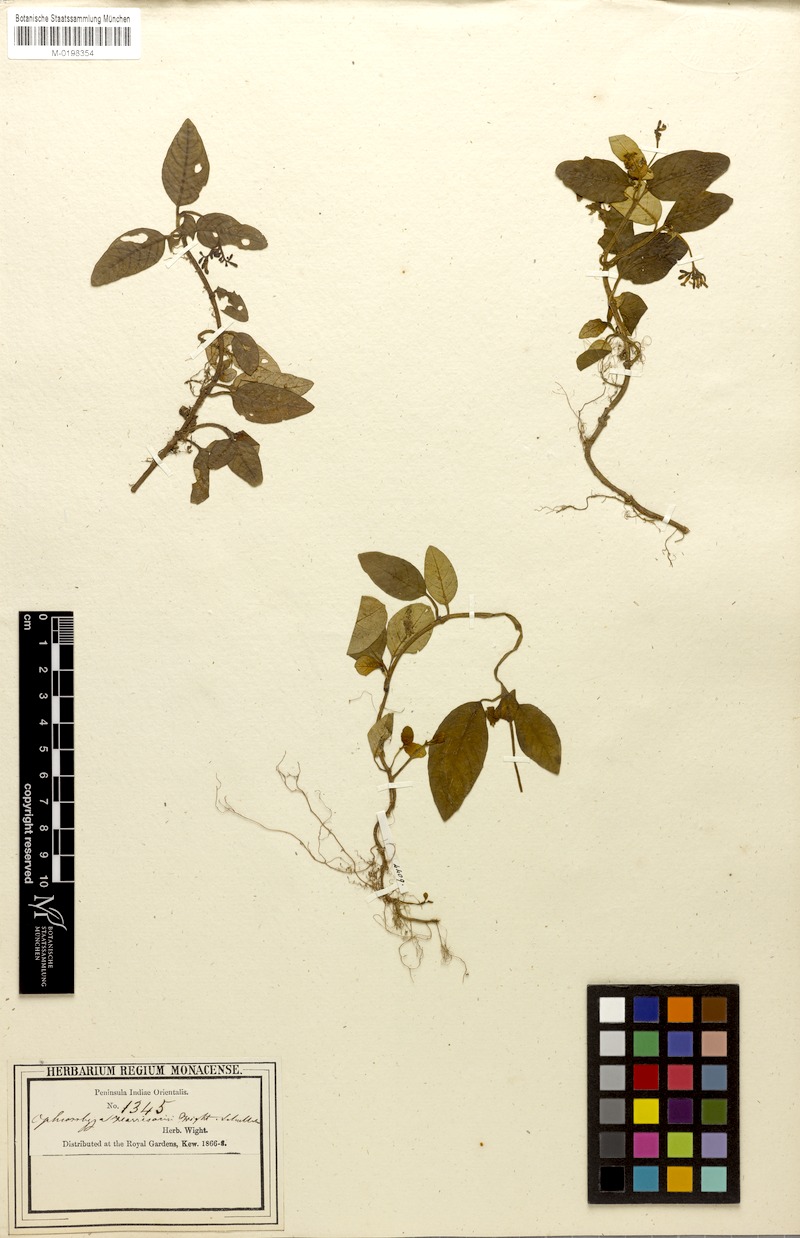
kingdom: Plantae
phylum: Tracheophyta
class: Magnoliopsida
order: Gentianales
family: Rubiaceae
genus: Ophiorrhiza
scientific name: Ophiorrhiza rugosa
